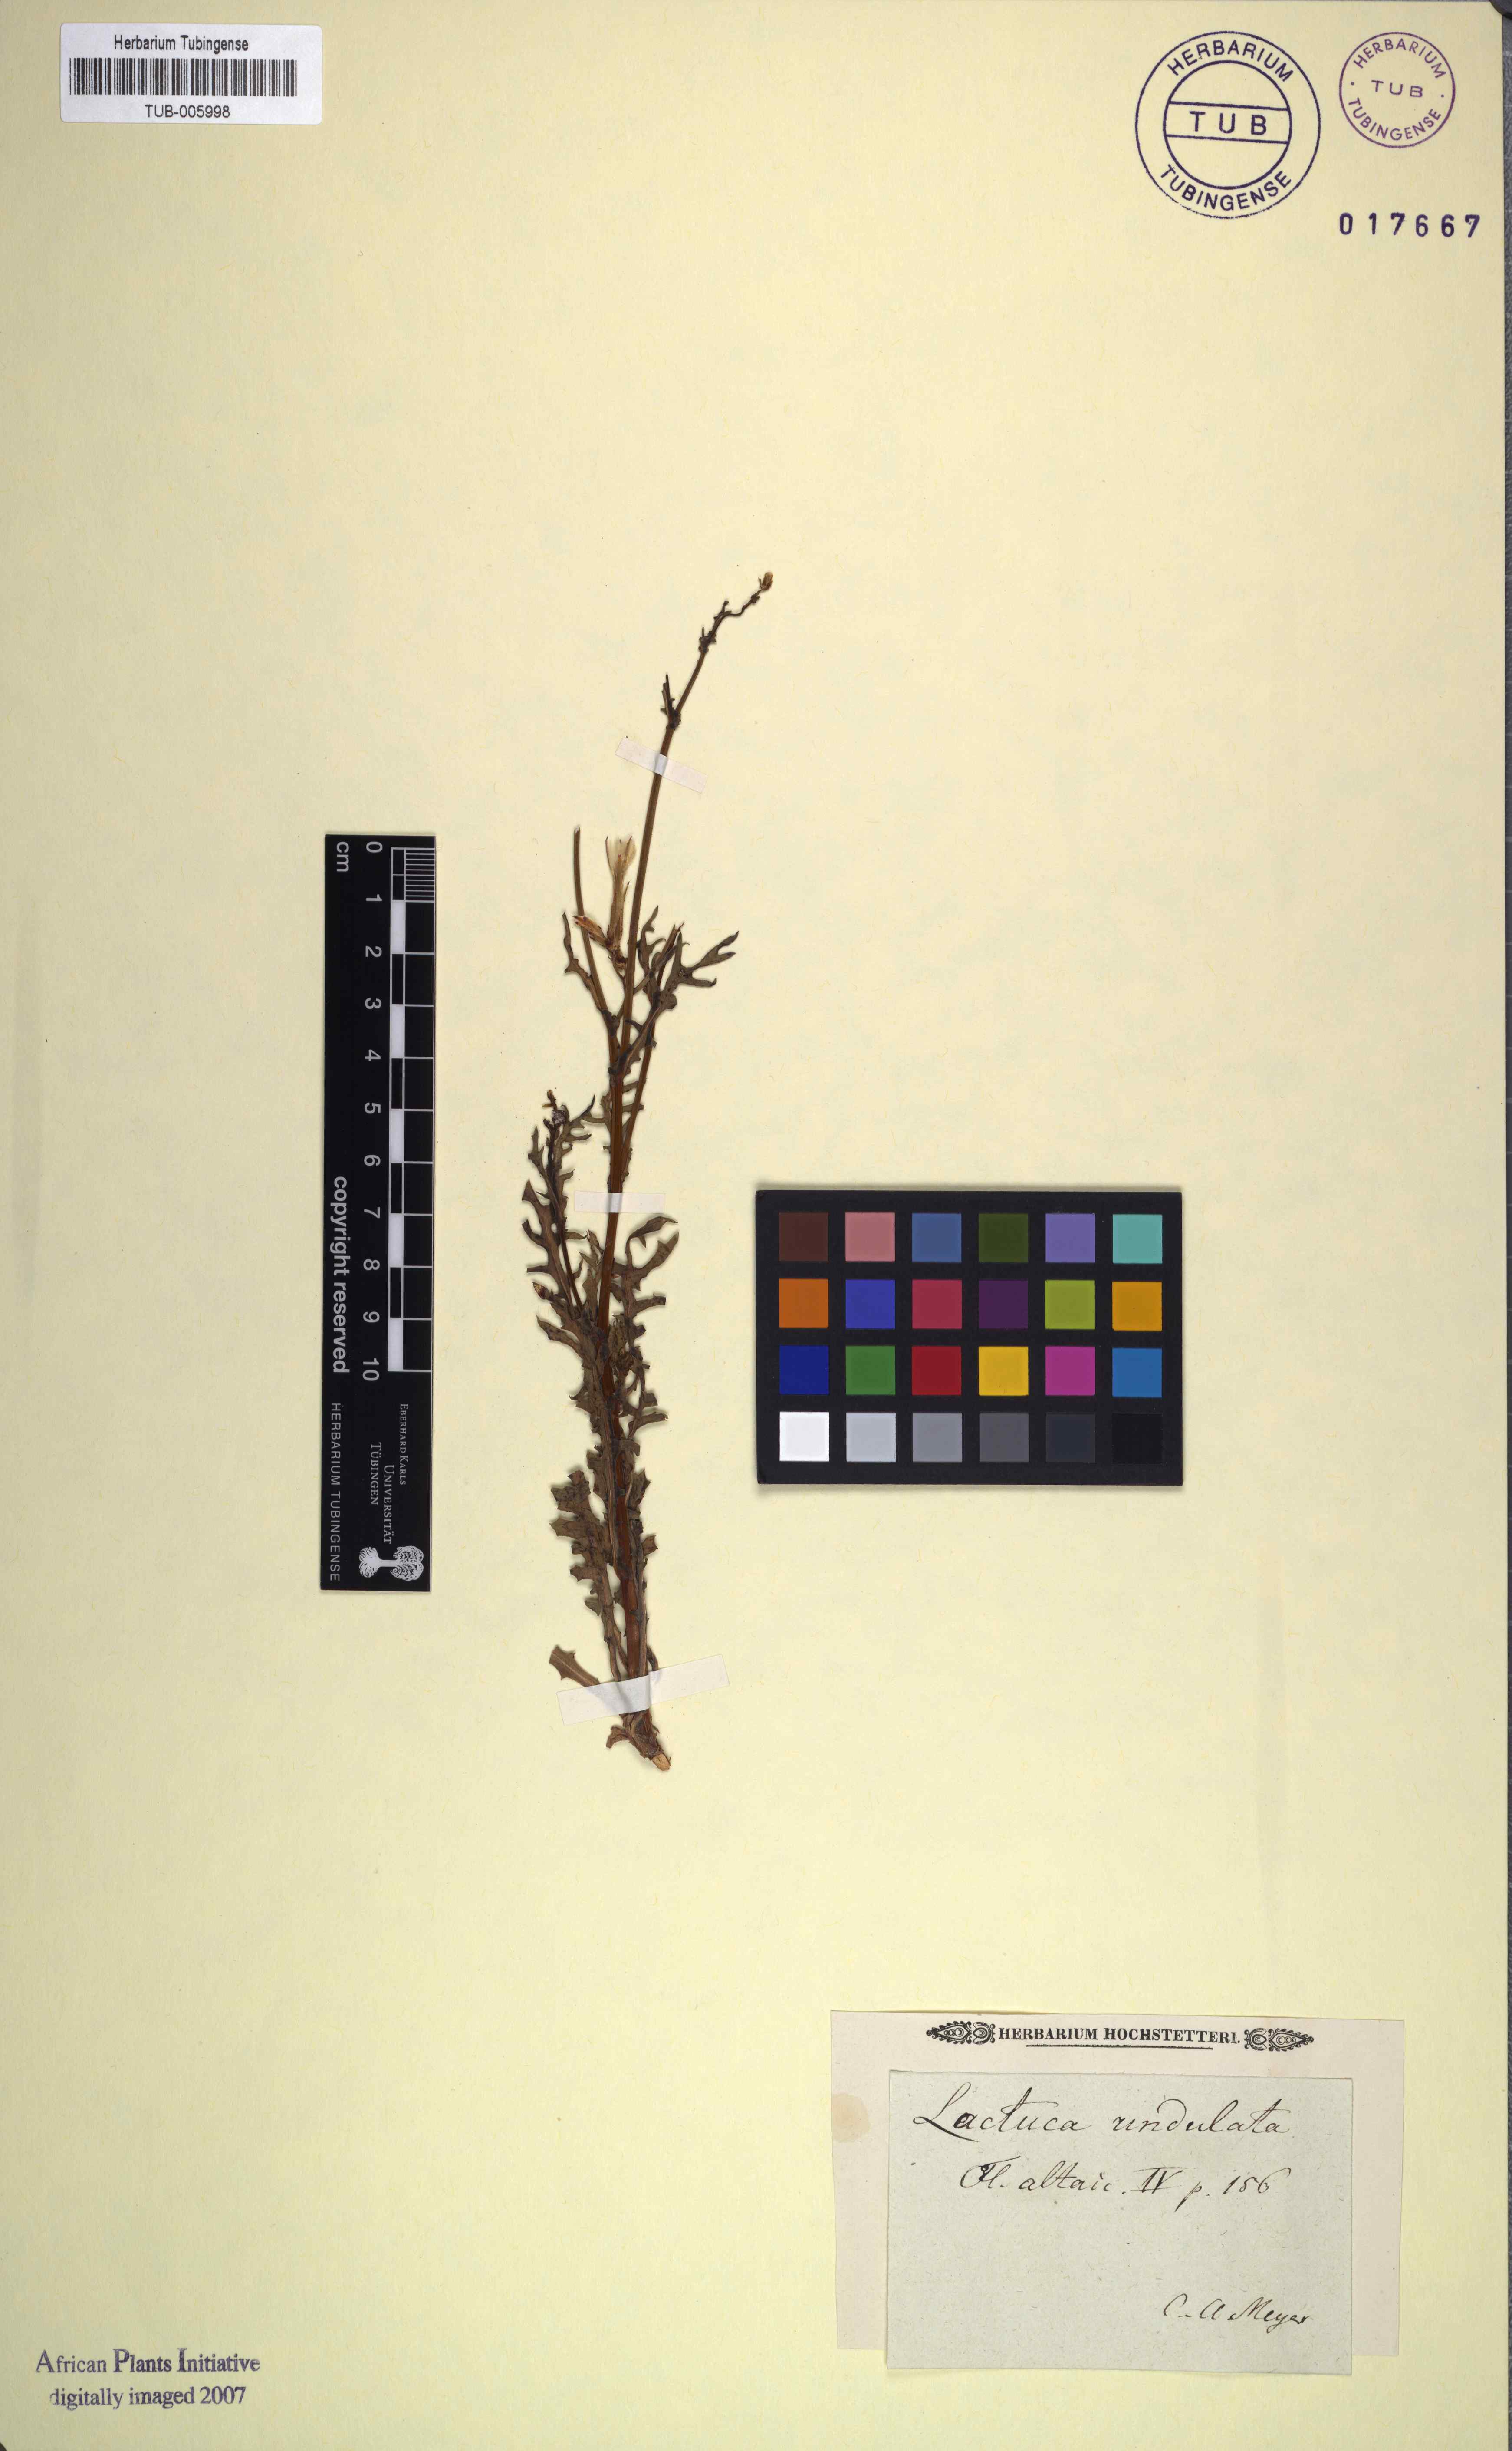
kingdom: Plantae
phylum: Tracheophyta
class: Magnoliopsida
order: Asterales
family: Asteraceae
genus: Lactuca
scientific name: Lactuca undulata
